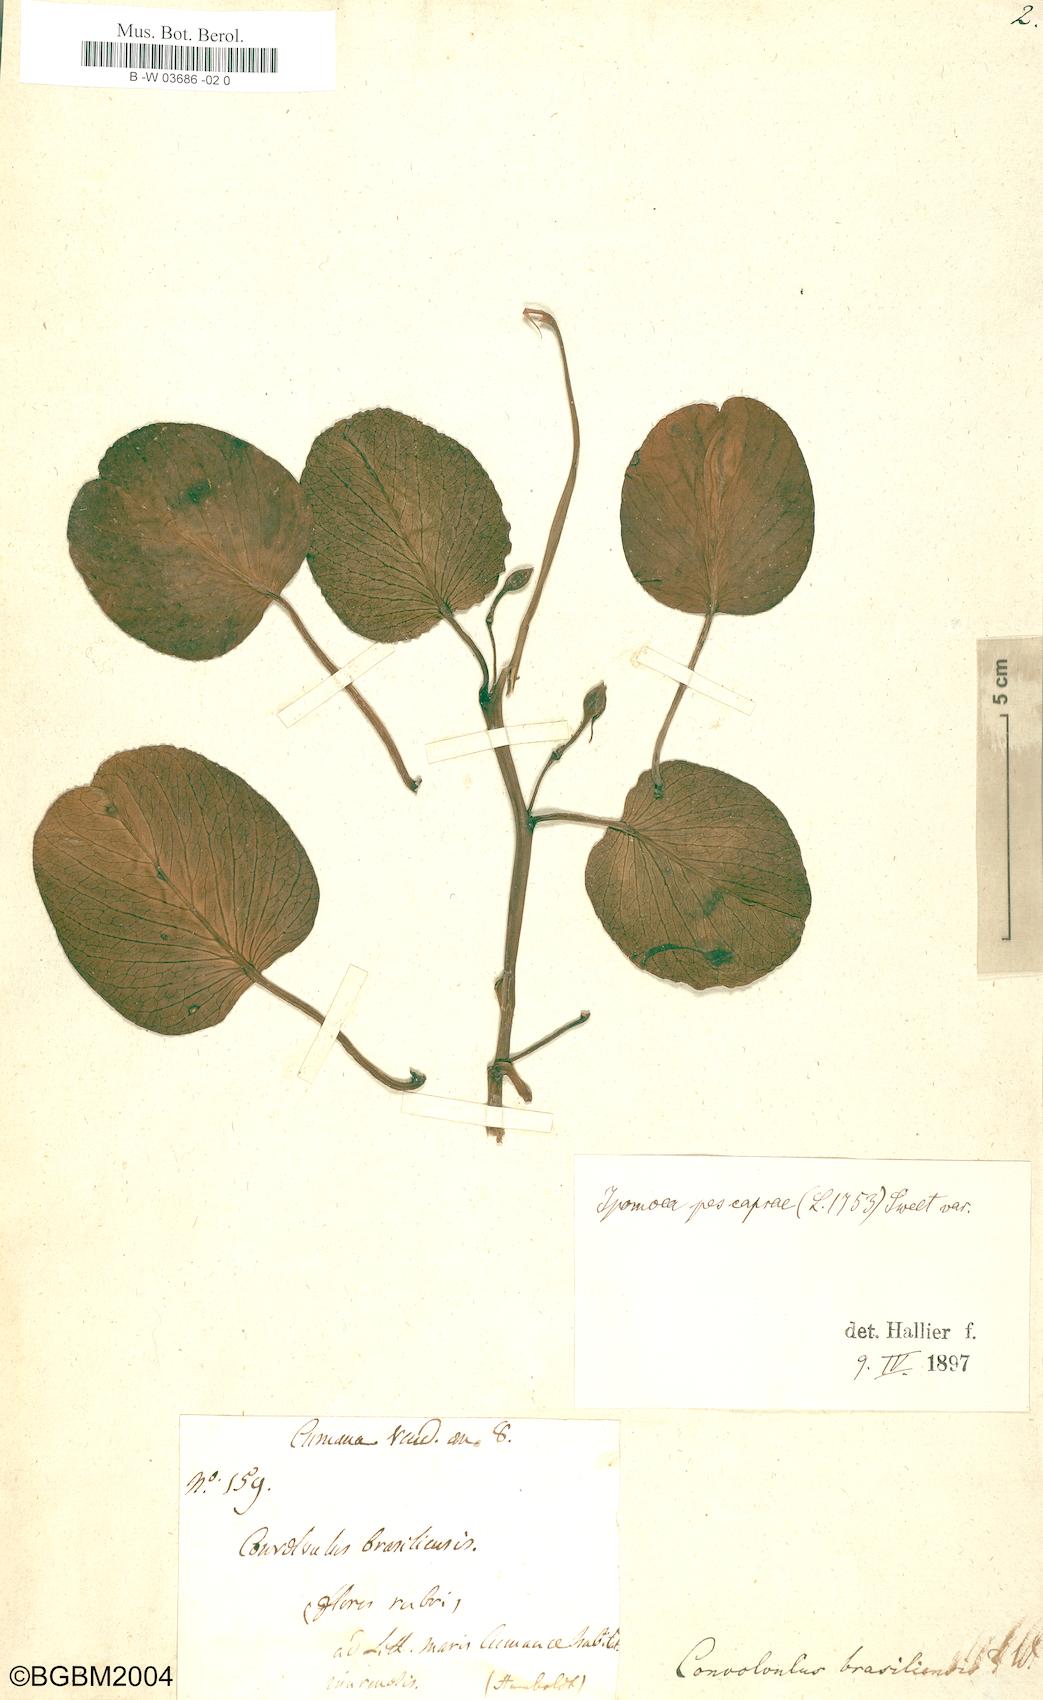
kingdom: Plantae
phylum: Tracheophyta
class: Magnoliopsida
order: Solanales
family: Convolvulaceae
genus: Ipomoea
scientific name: Ipomoea pes-caprae
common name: Beach morning glory
